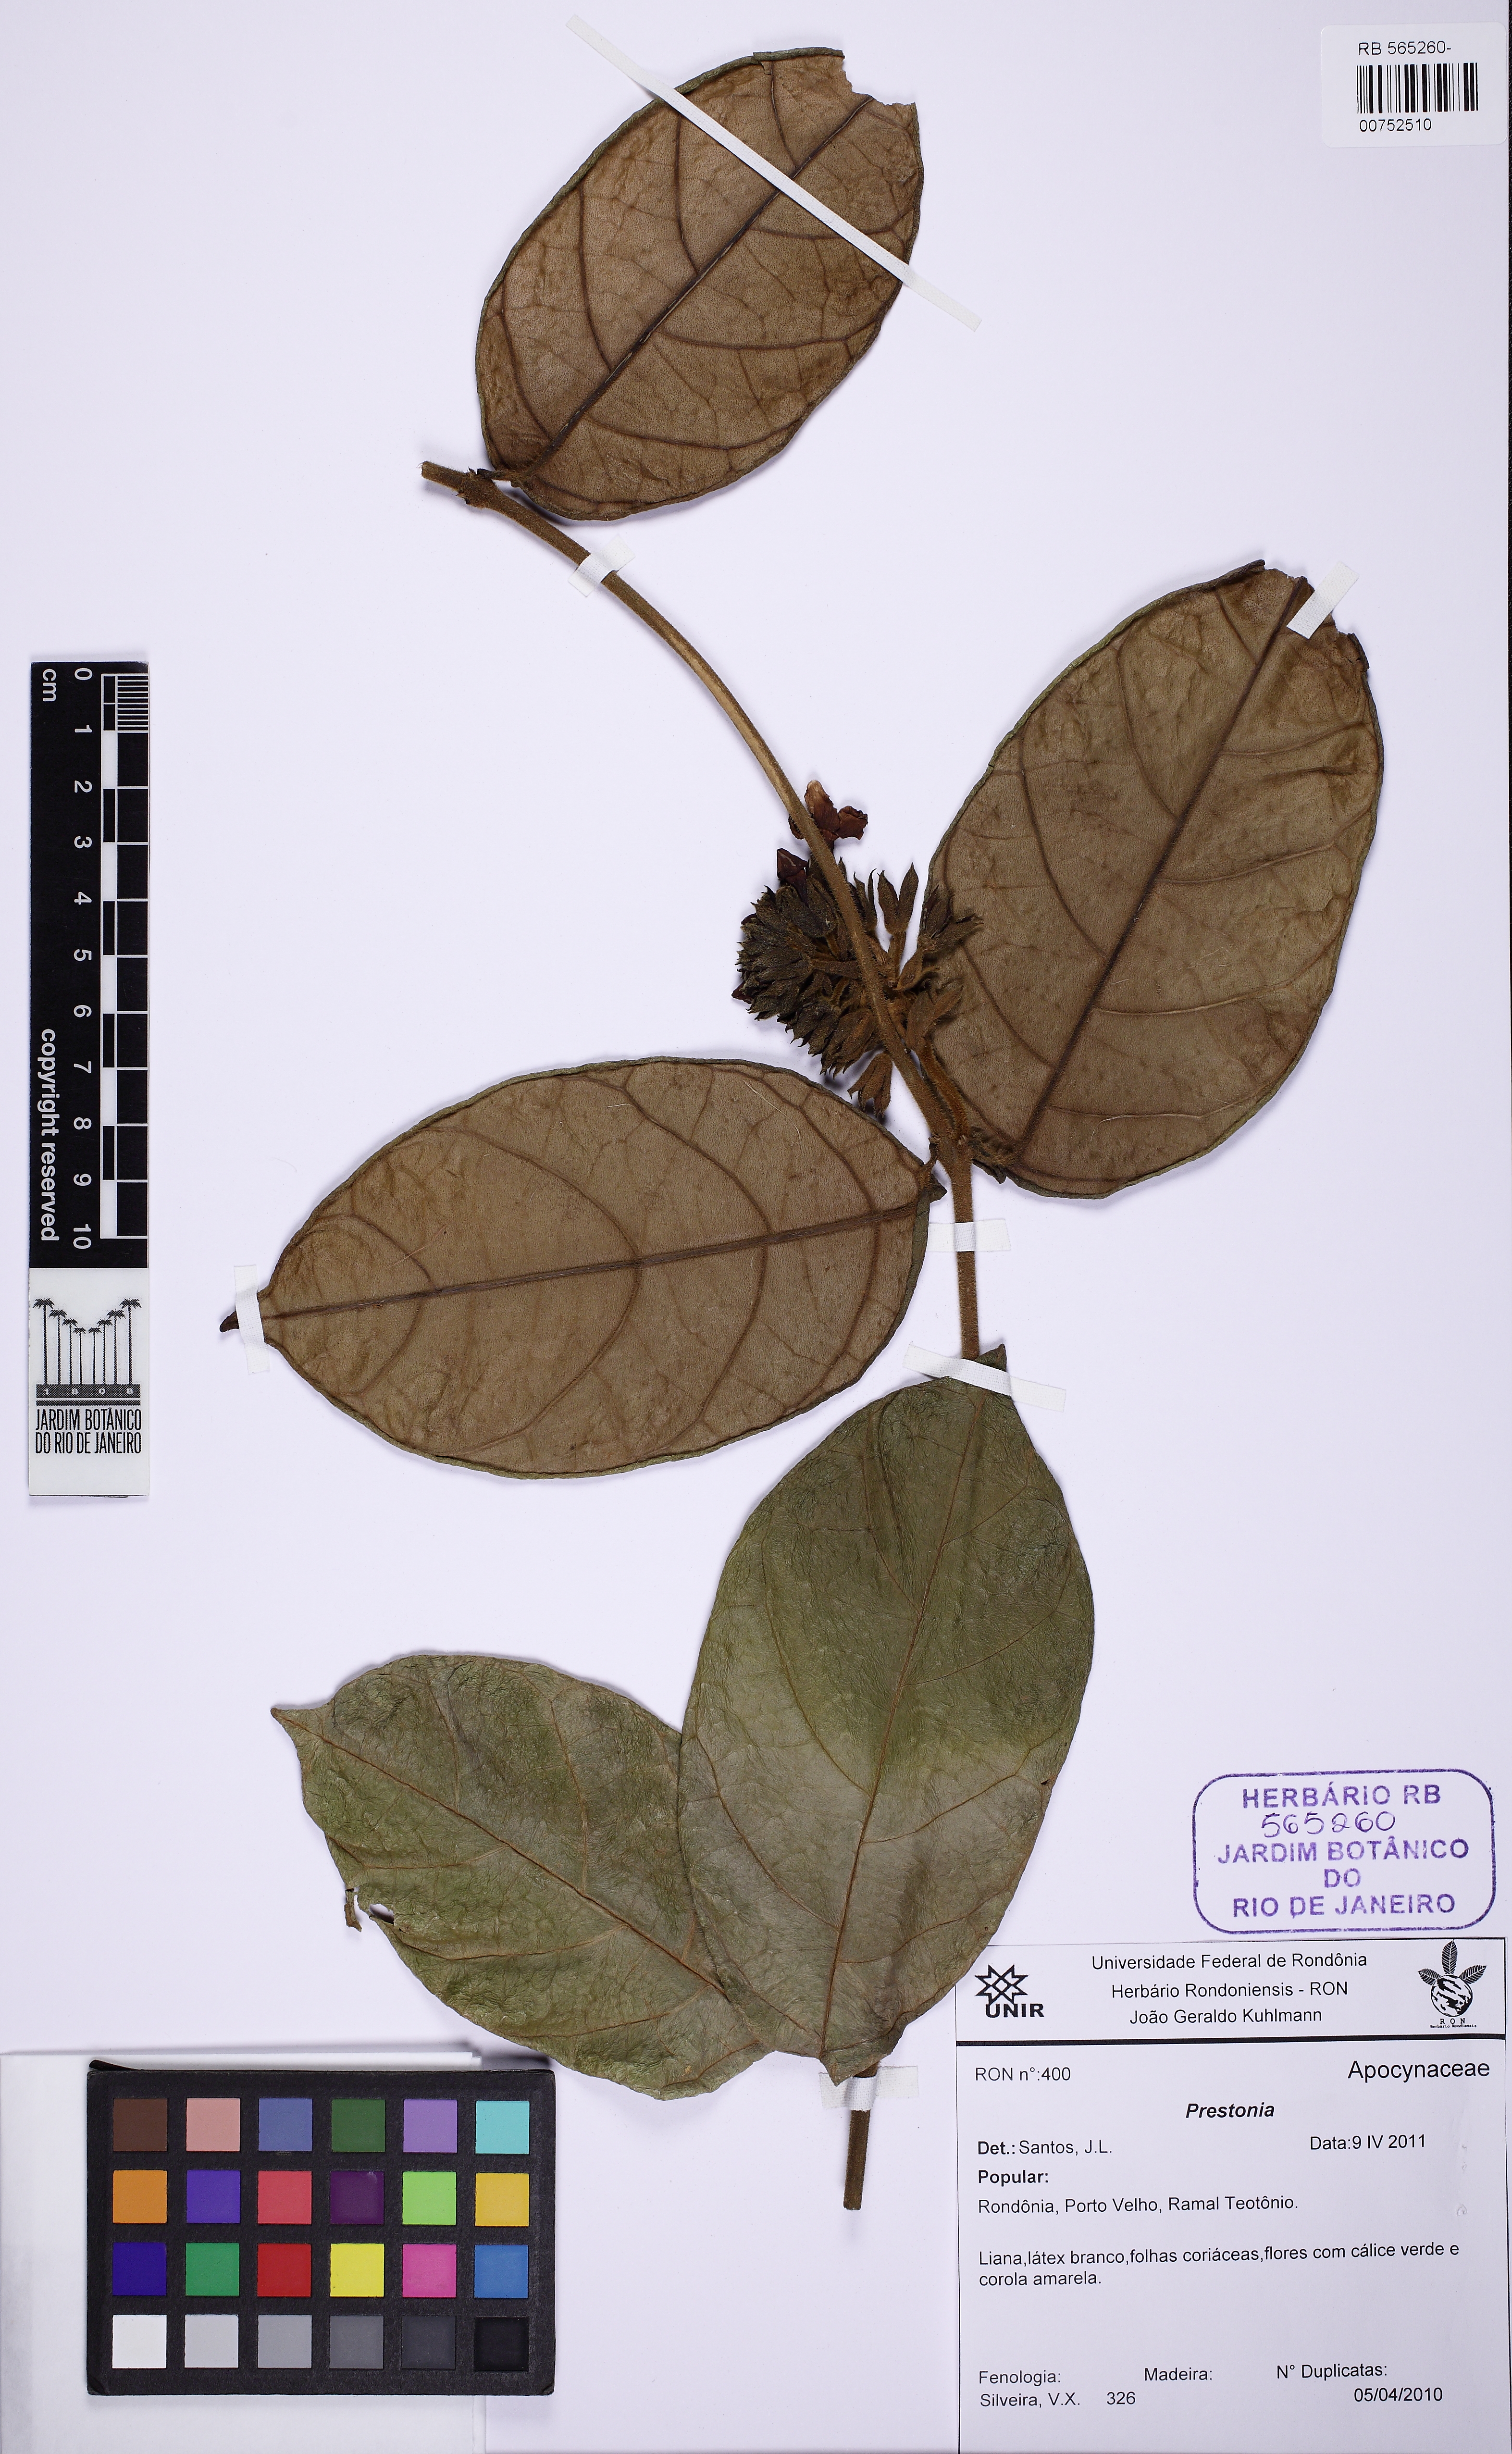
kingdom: Plantae
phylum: Tracheophyta
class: Magnoliopsida
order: Gentianales
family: Apocynaceae
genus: Prestonia
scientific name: Prestonia
